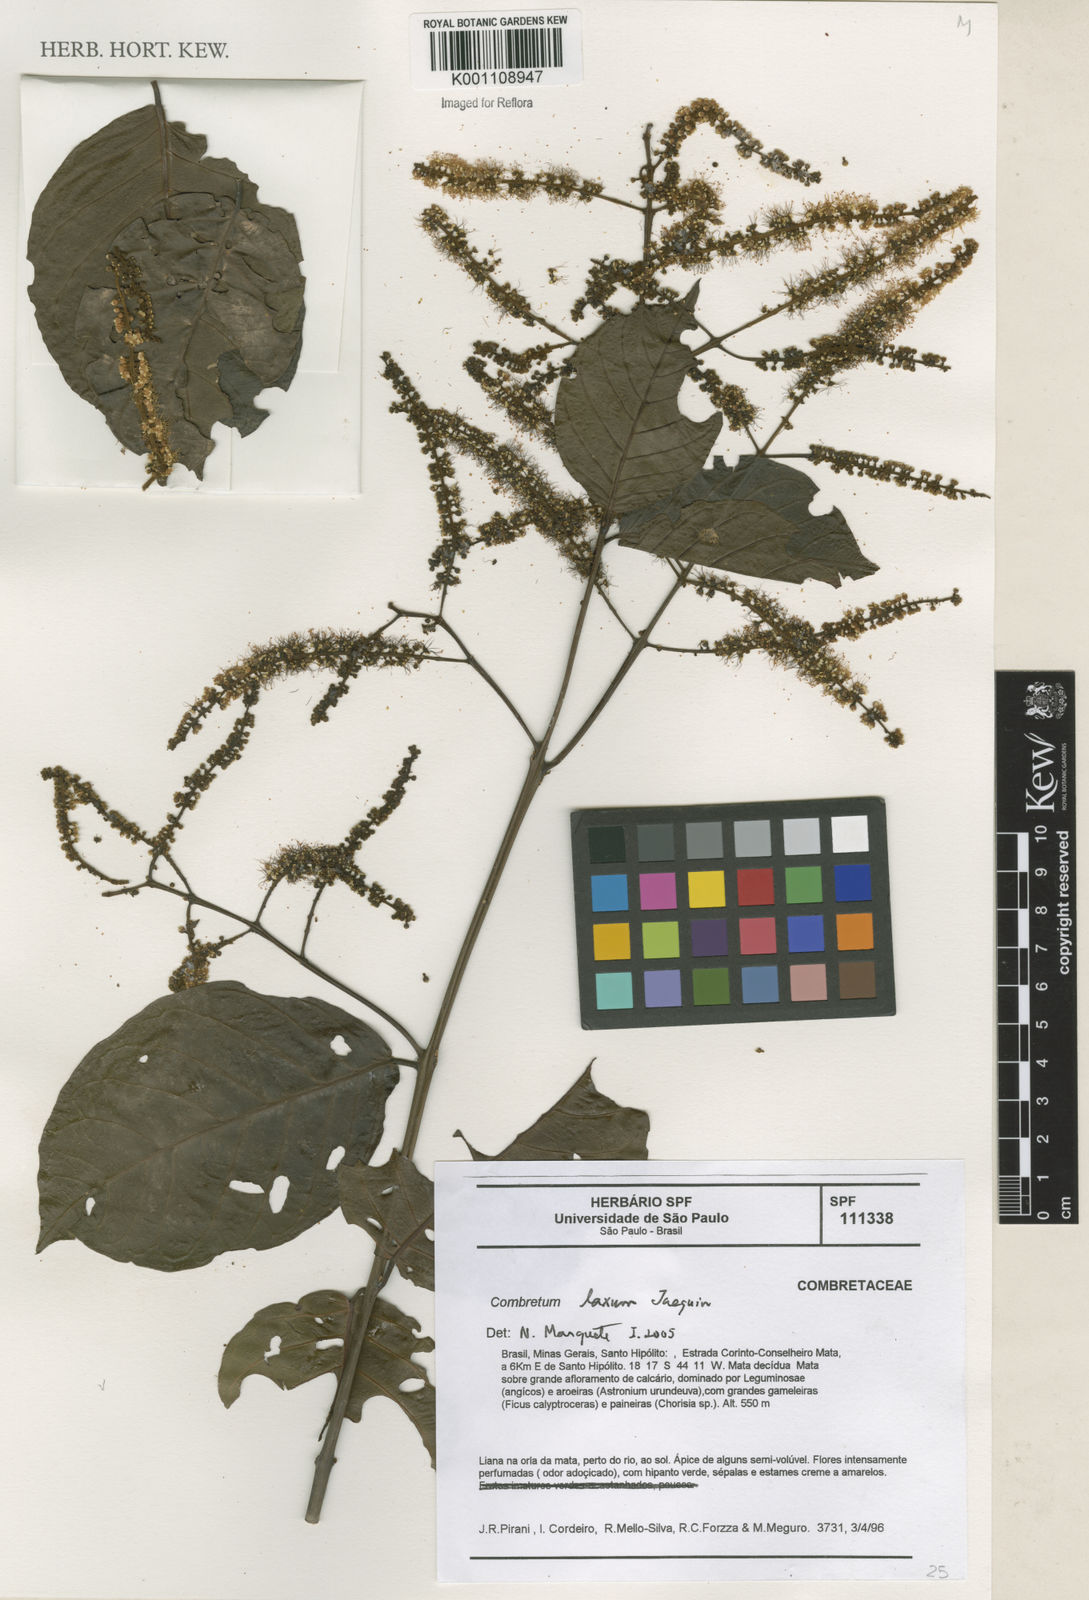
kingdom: Plantae
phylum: Tracheophyta
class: Magnoliopsida
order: Myrtales
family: Combretaceae
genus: Combretum
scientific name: Combretum laxum
